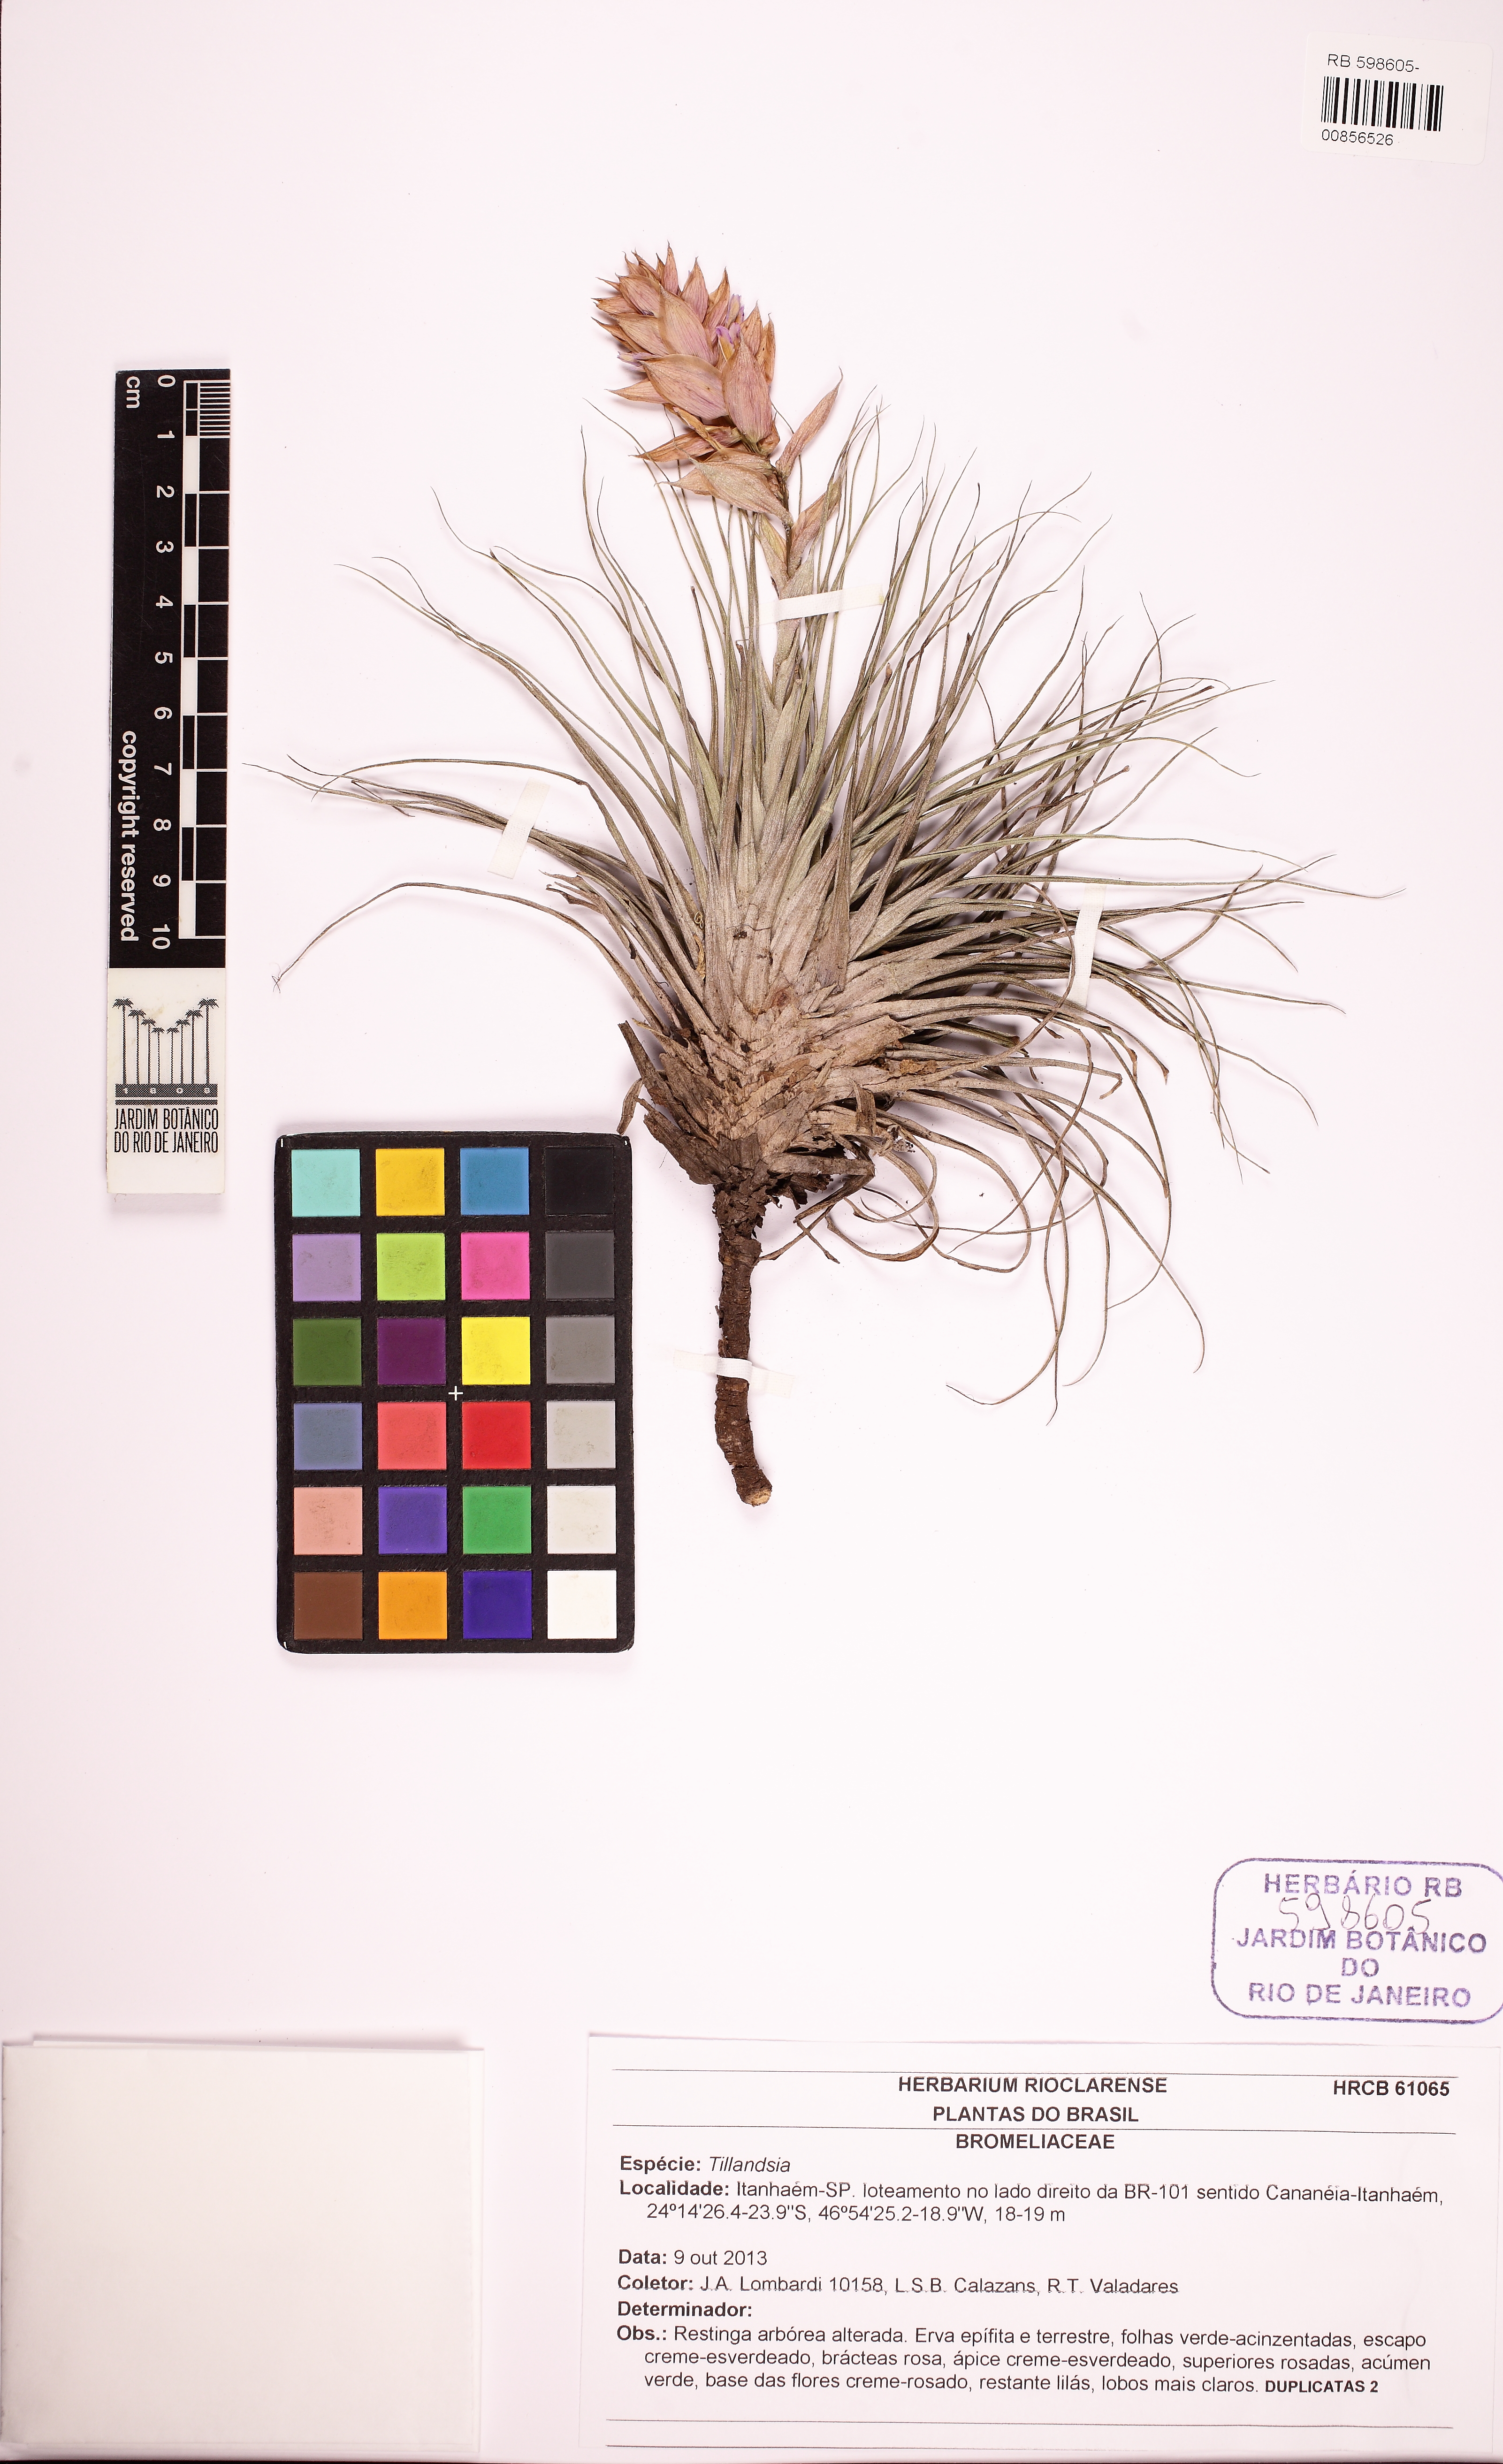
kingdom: Plantae
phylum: Tracheophyta
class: Liliopsida
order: Poales
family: Bromeliaceae
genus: Tillandsia
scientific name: Tillandsia stricta
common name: Airplant
